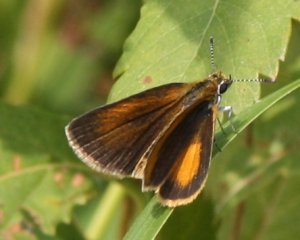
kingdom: Animalia
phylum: Arthropoda
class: Insecta
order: Lepidoptera
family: Hesperiidae
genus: Ancyloxypha
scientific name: Ancyloxypha numitor
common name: Least Skipper
